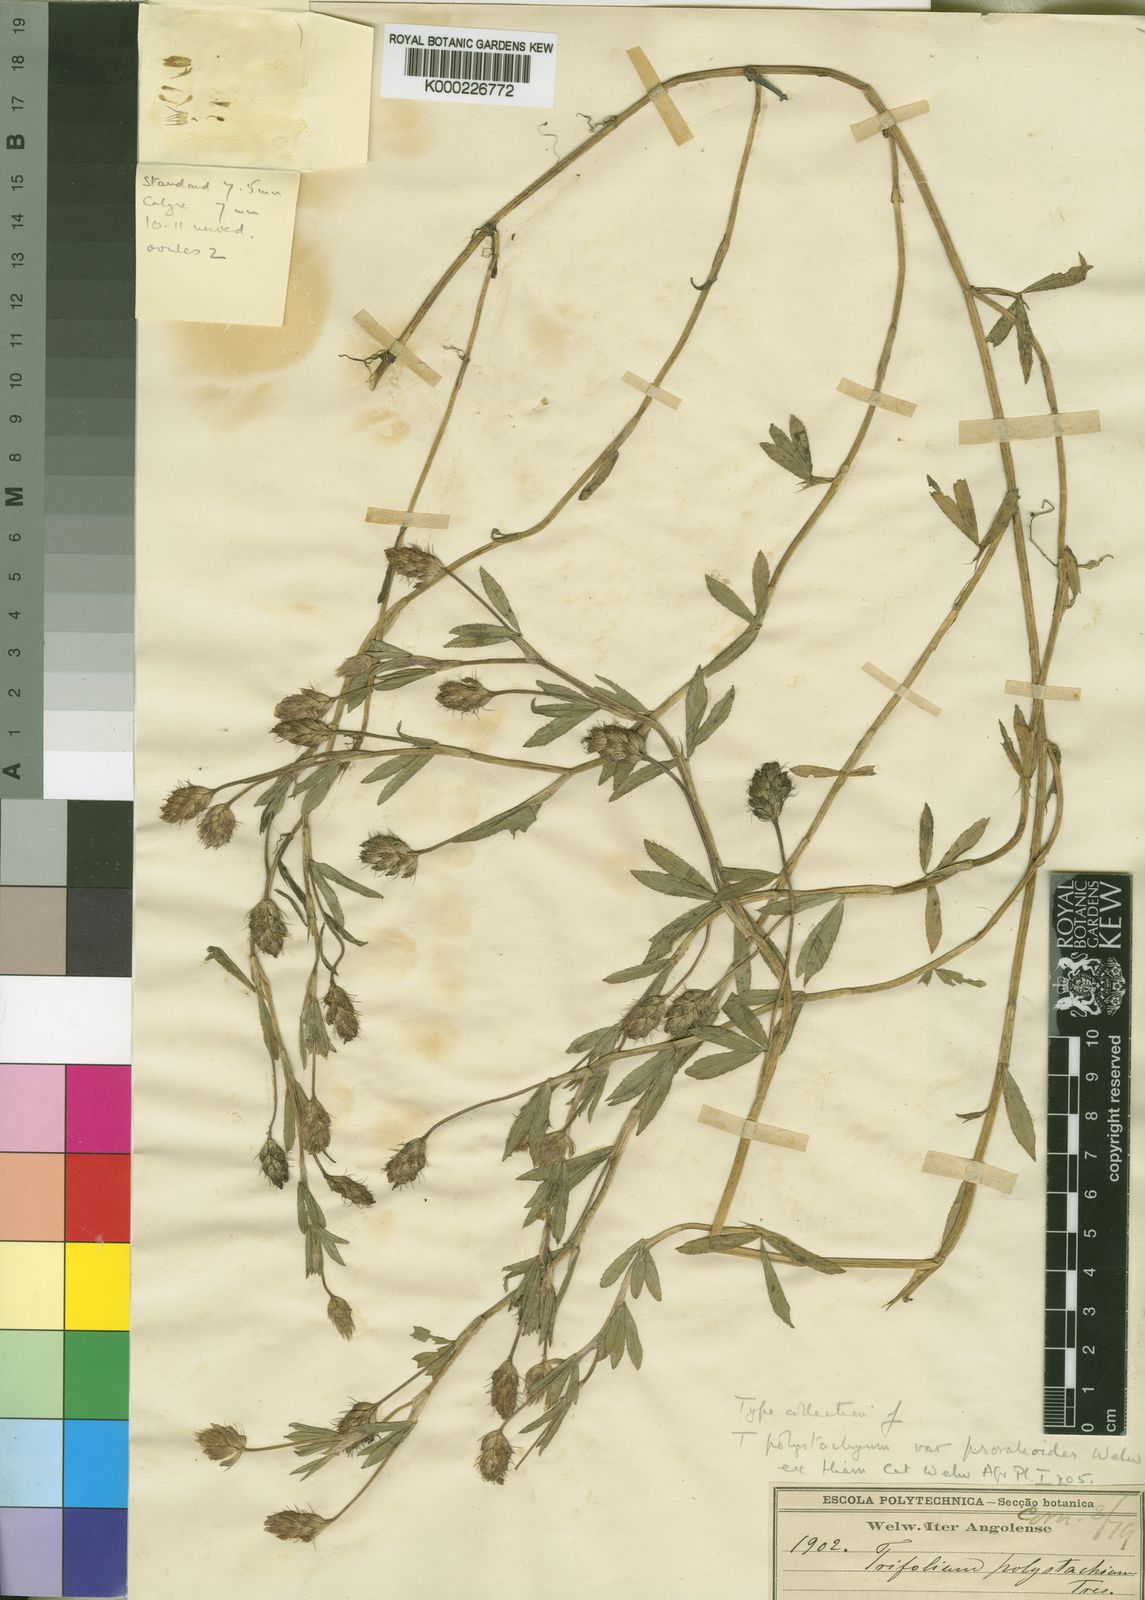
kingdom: Plantae
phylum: Tracheophyta
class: Magnoliopsida
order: Fabales
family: Fabaceae
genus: Trifolium
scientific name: Trifolium polystachyum
